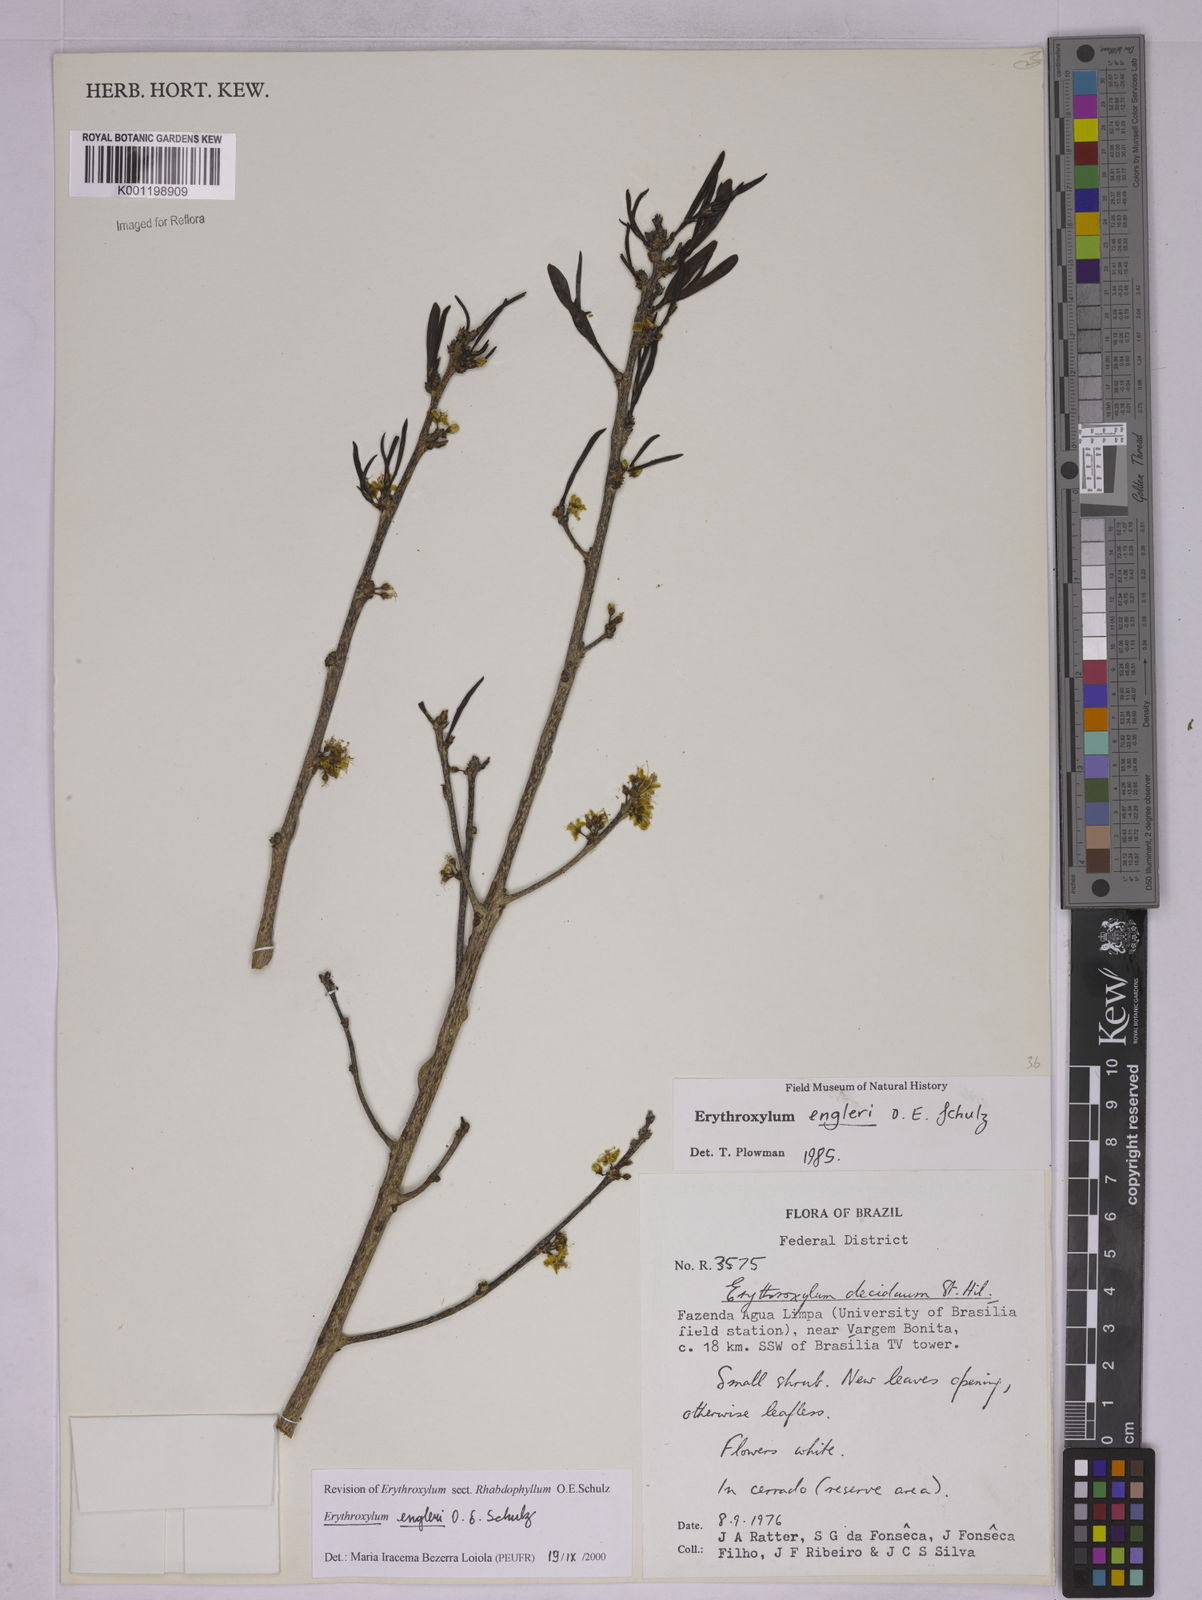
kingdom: Plantae
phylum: Tracheophyta
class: Magnoliopsida
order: Malpighiales
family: Erythroxylaceae
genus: Erythroxylum
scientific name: Erythroxylum engleri
